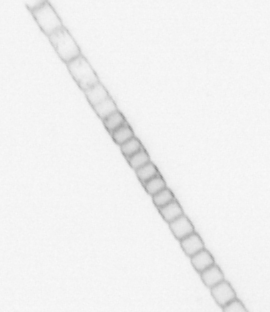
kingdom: Chromista
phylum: Ochrophyta
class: Bacillariophyceae
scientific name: Bacillariophyceae
